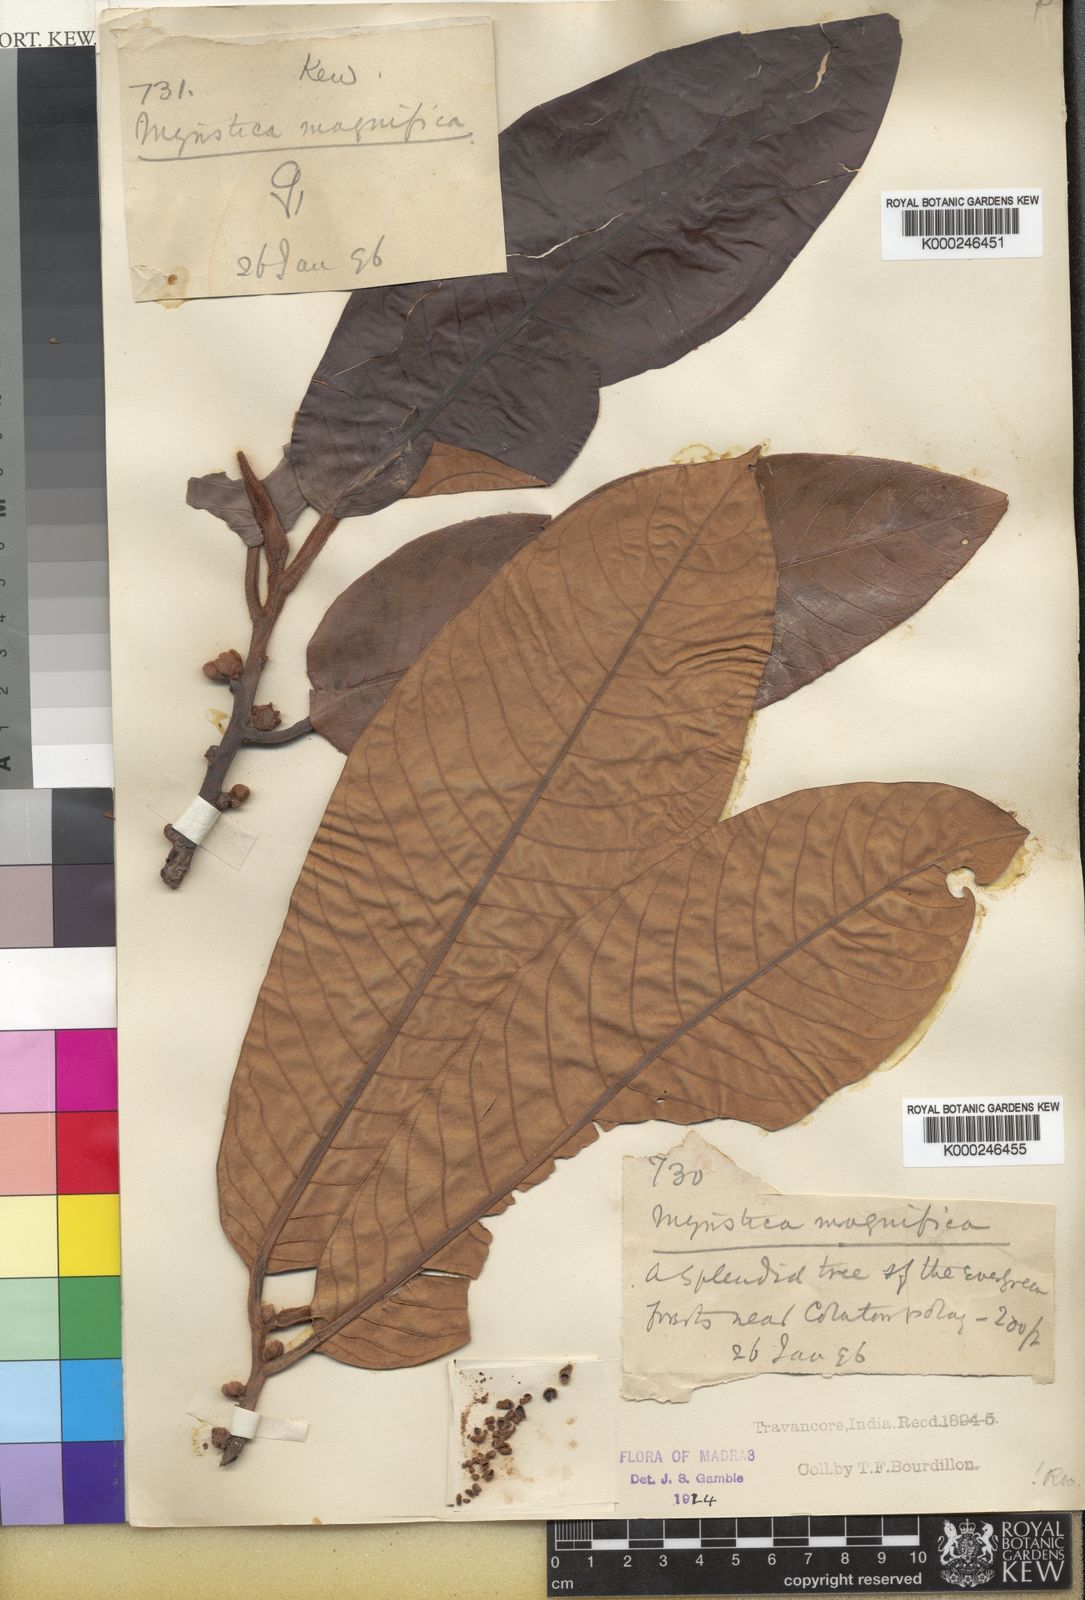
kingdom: Plantae
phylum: Tracheophyta
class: Magnoliopsida
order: Magnoliales
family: Myristicaceae
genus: Myristica
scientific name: Myristica magnifica
